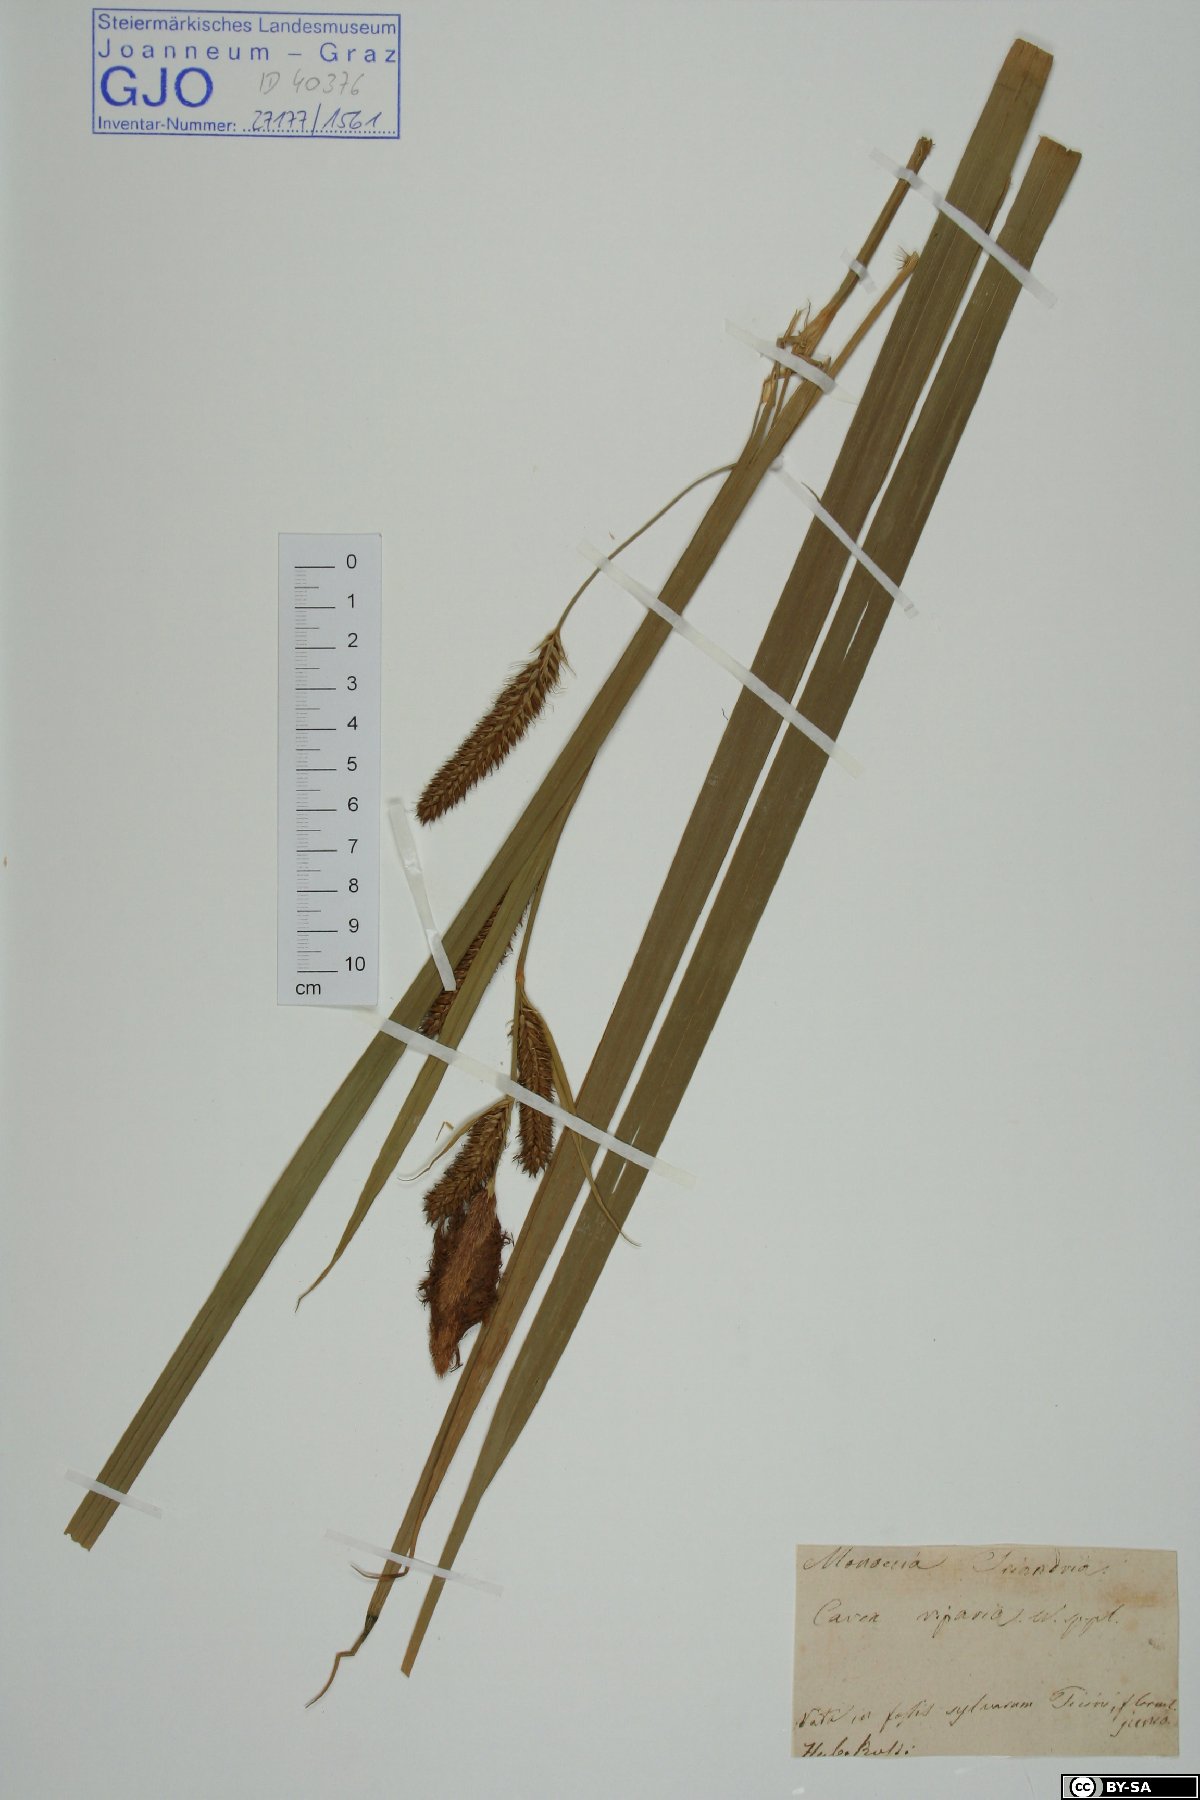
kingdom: Plantae
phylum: Tracheophyta
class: Liliopsida
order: Poales
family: Cyperaceae
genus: Carex
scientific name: Carex riparia
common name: Greater pond-sedge
